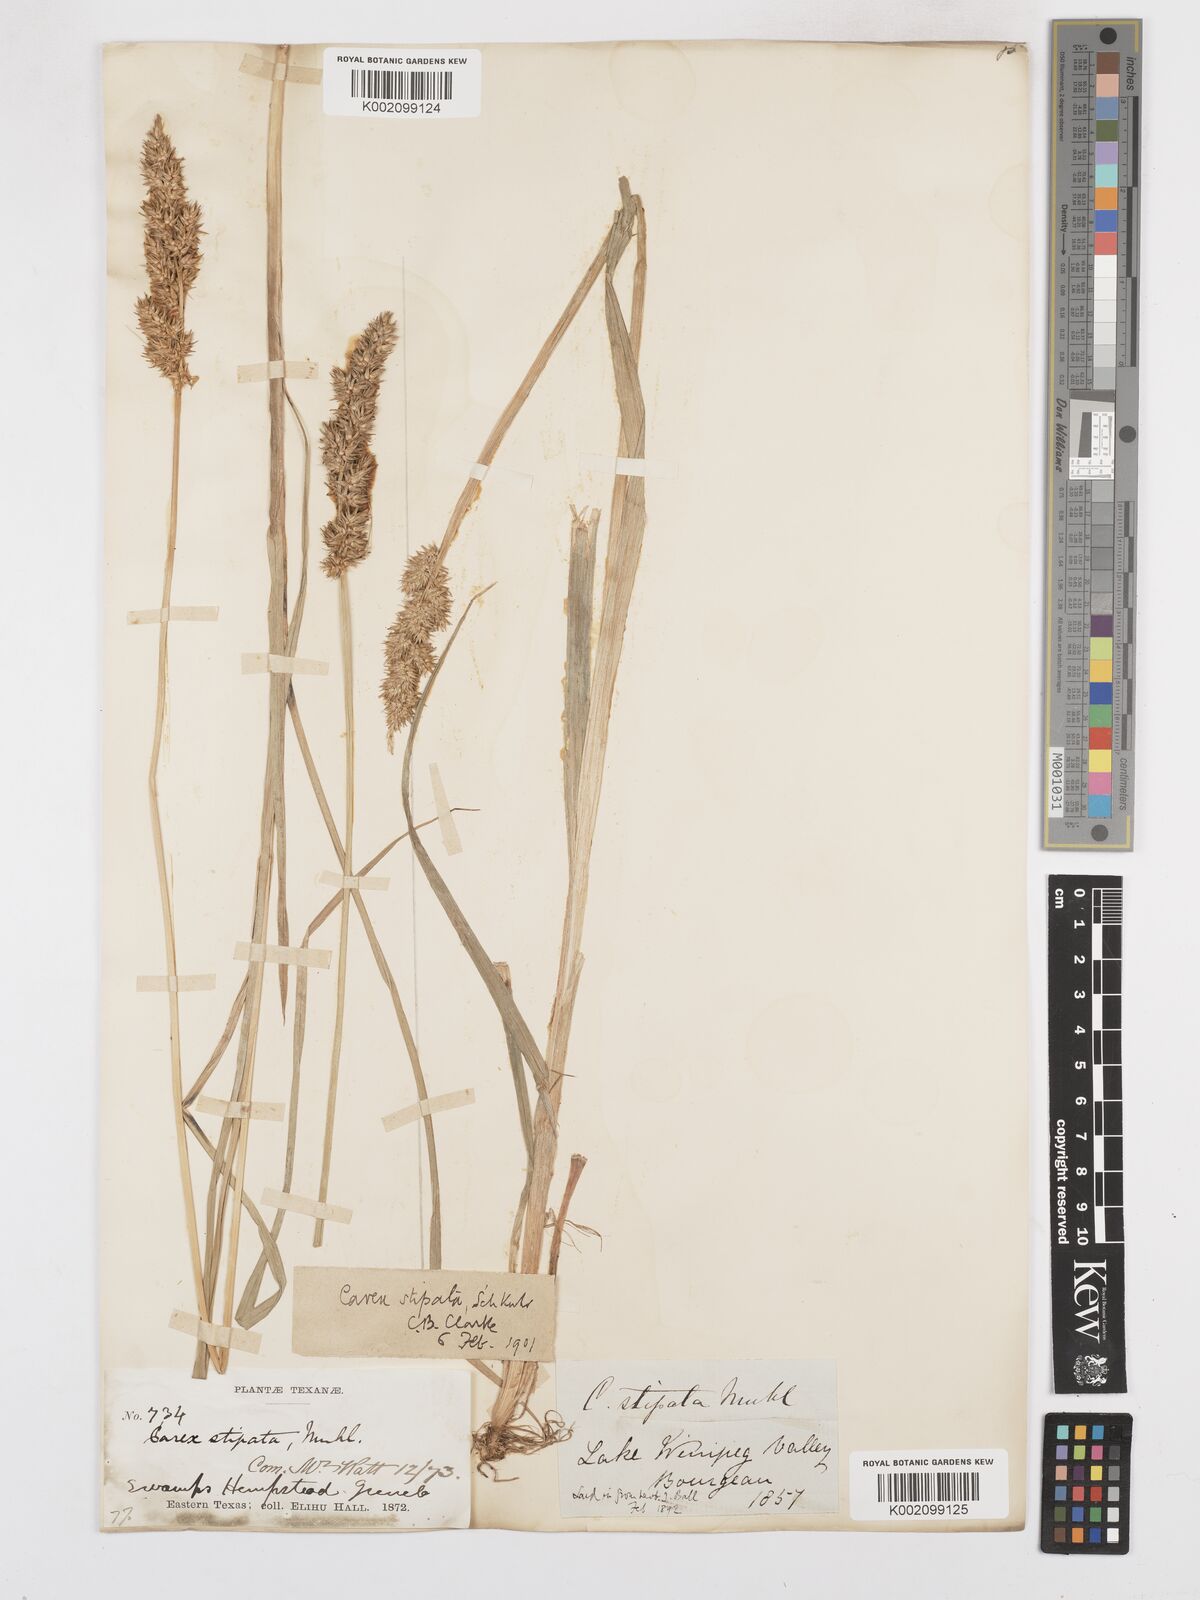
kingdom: Plantae
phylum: Tracheophyta
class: Liliopsida
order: Poales
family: Cyperaceae
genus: Carex
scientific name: Carex stipata
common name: Awl-fruited sedge
